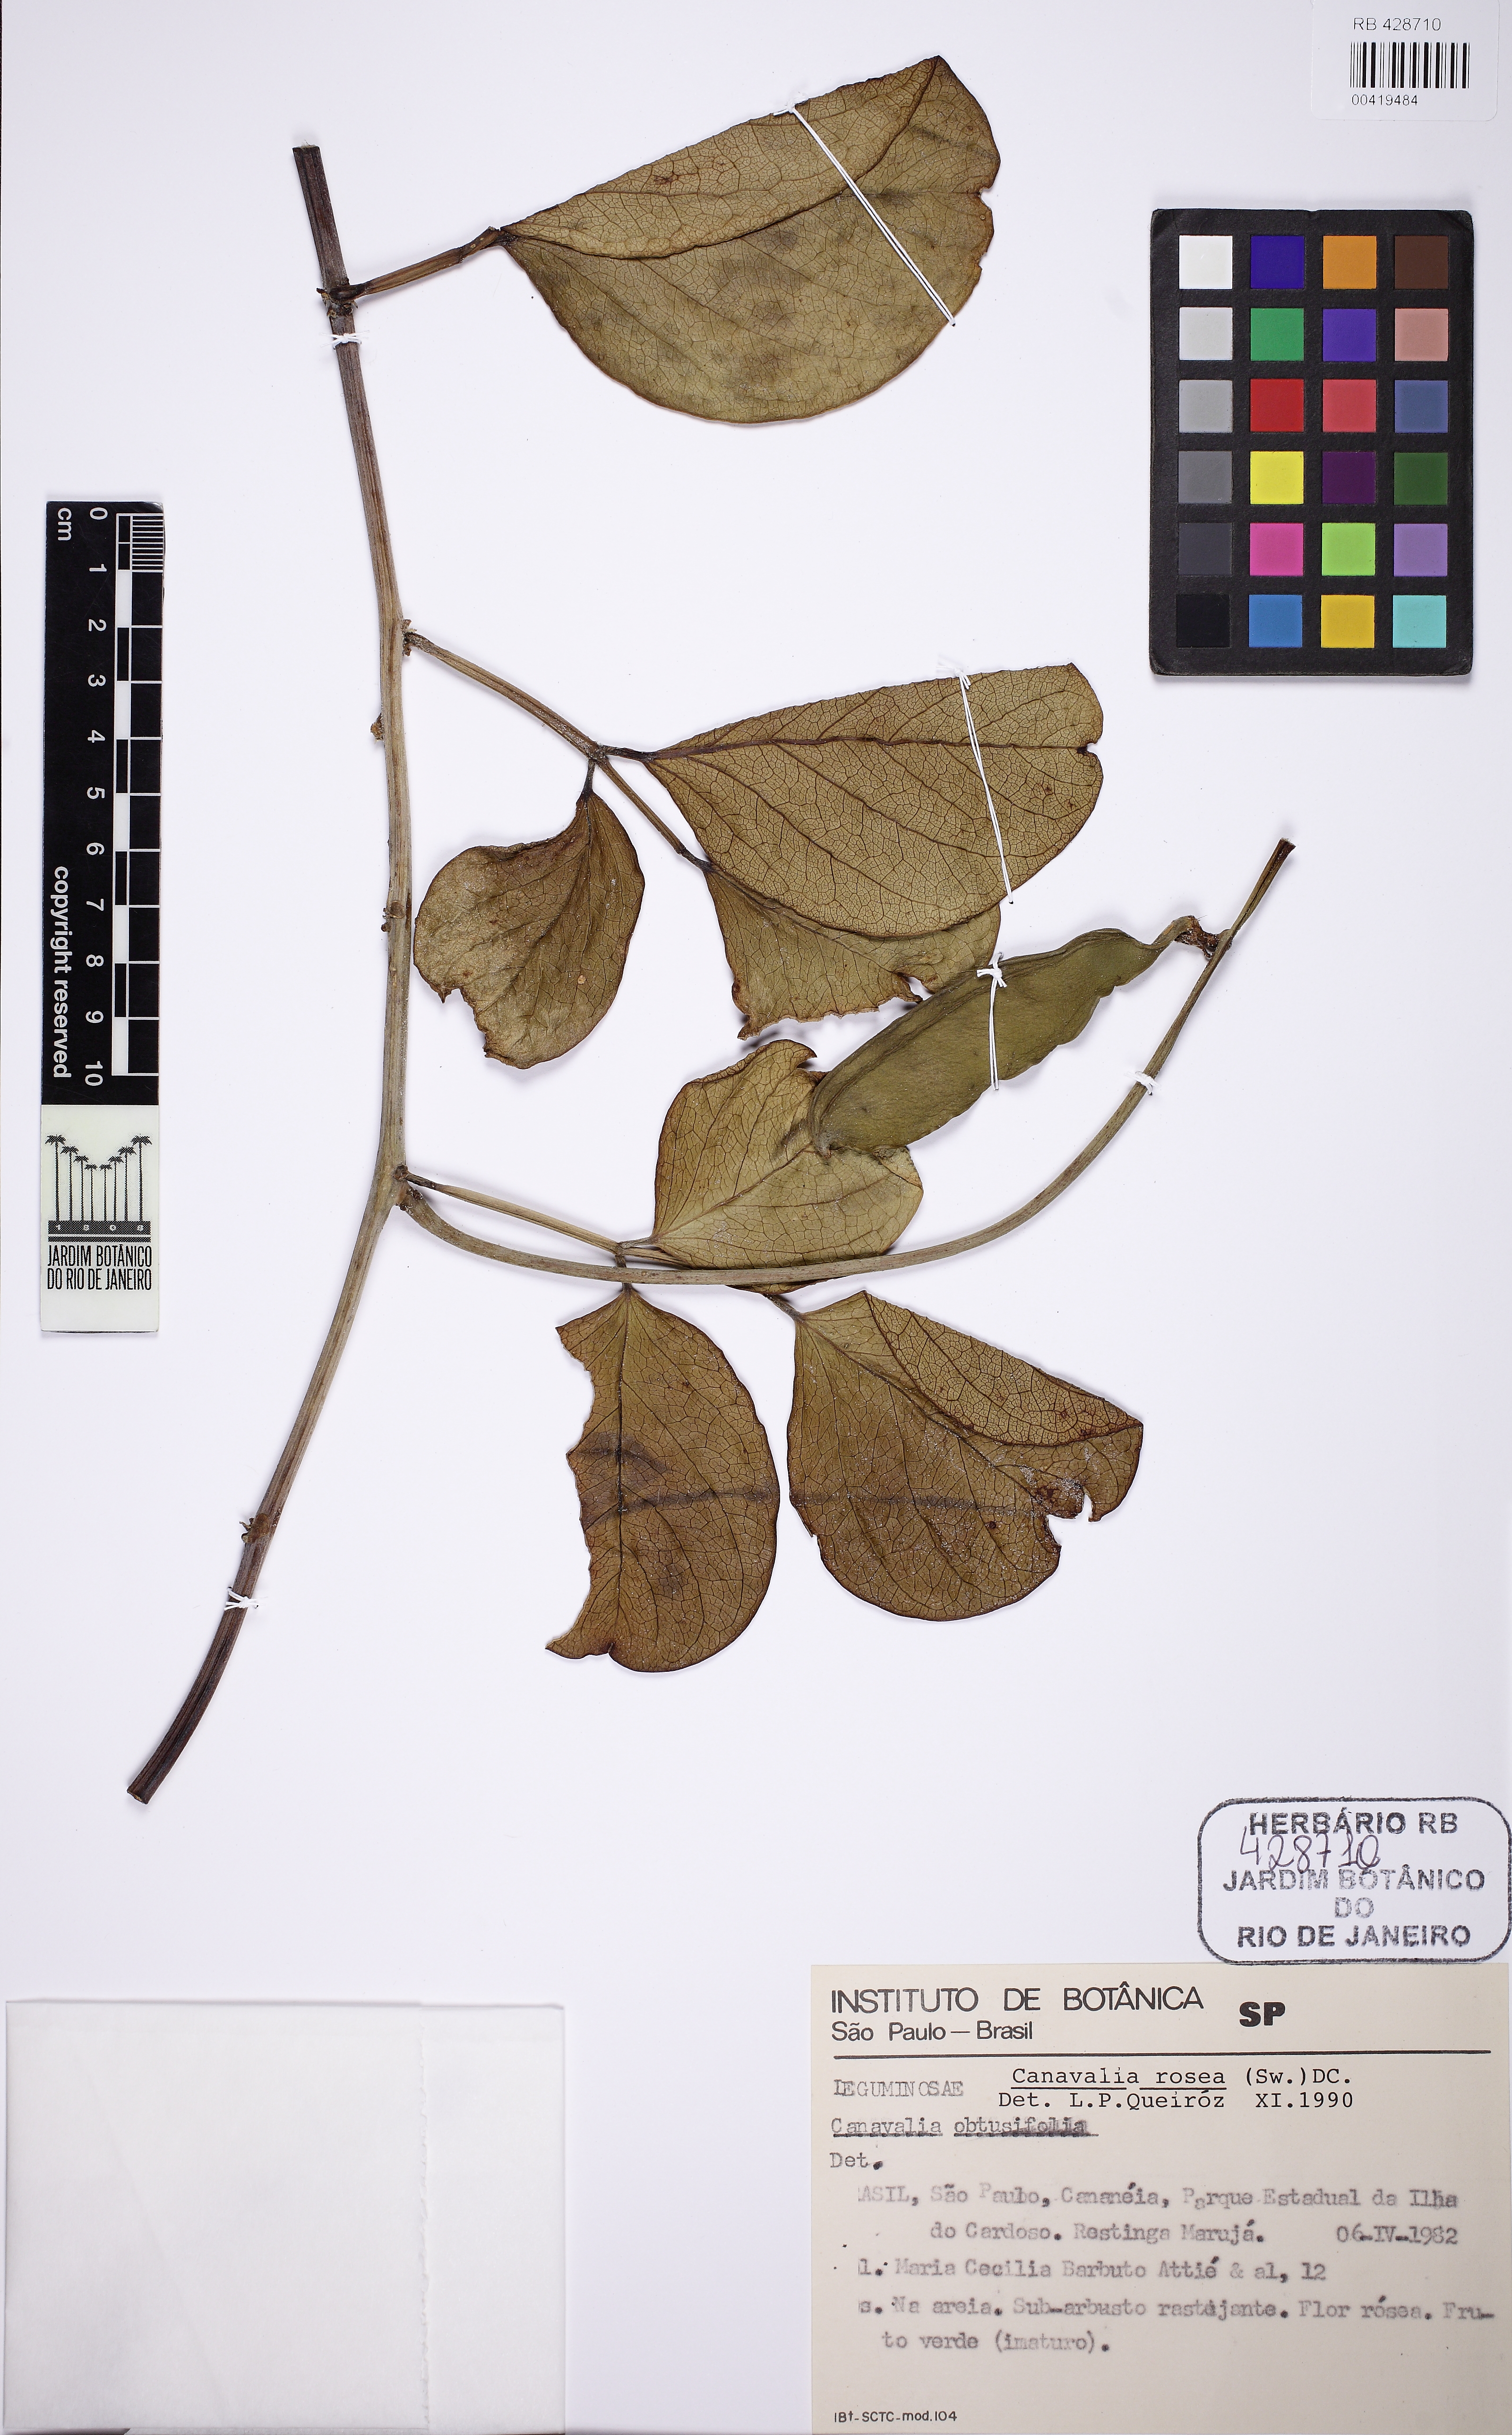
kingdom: Plantae
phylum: Tracheophyta
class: Magnoliopsida
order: Fabales
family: Fabaceae
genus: Canavalia
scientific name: Canavalia rosea
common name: Beach-bean
